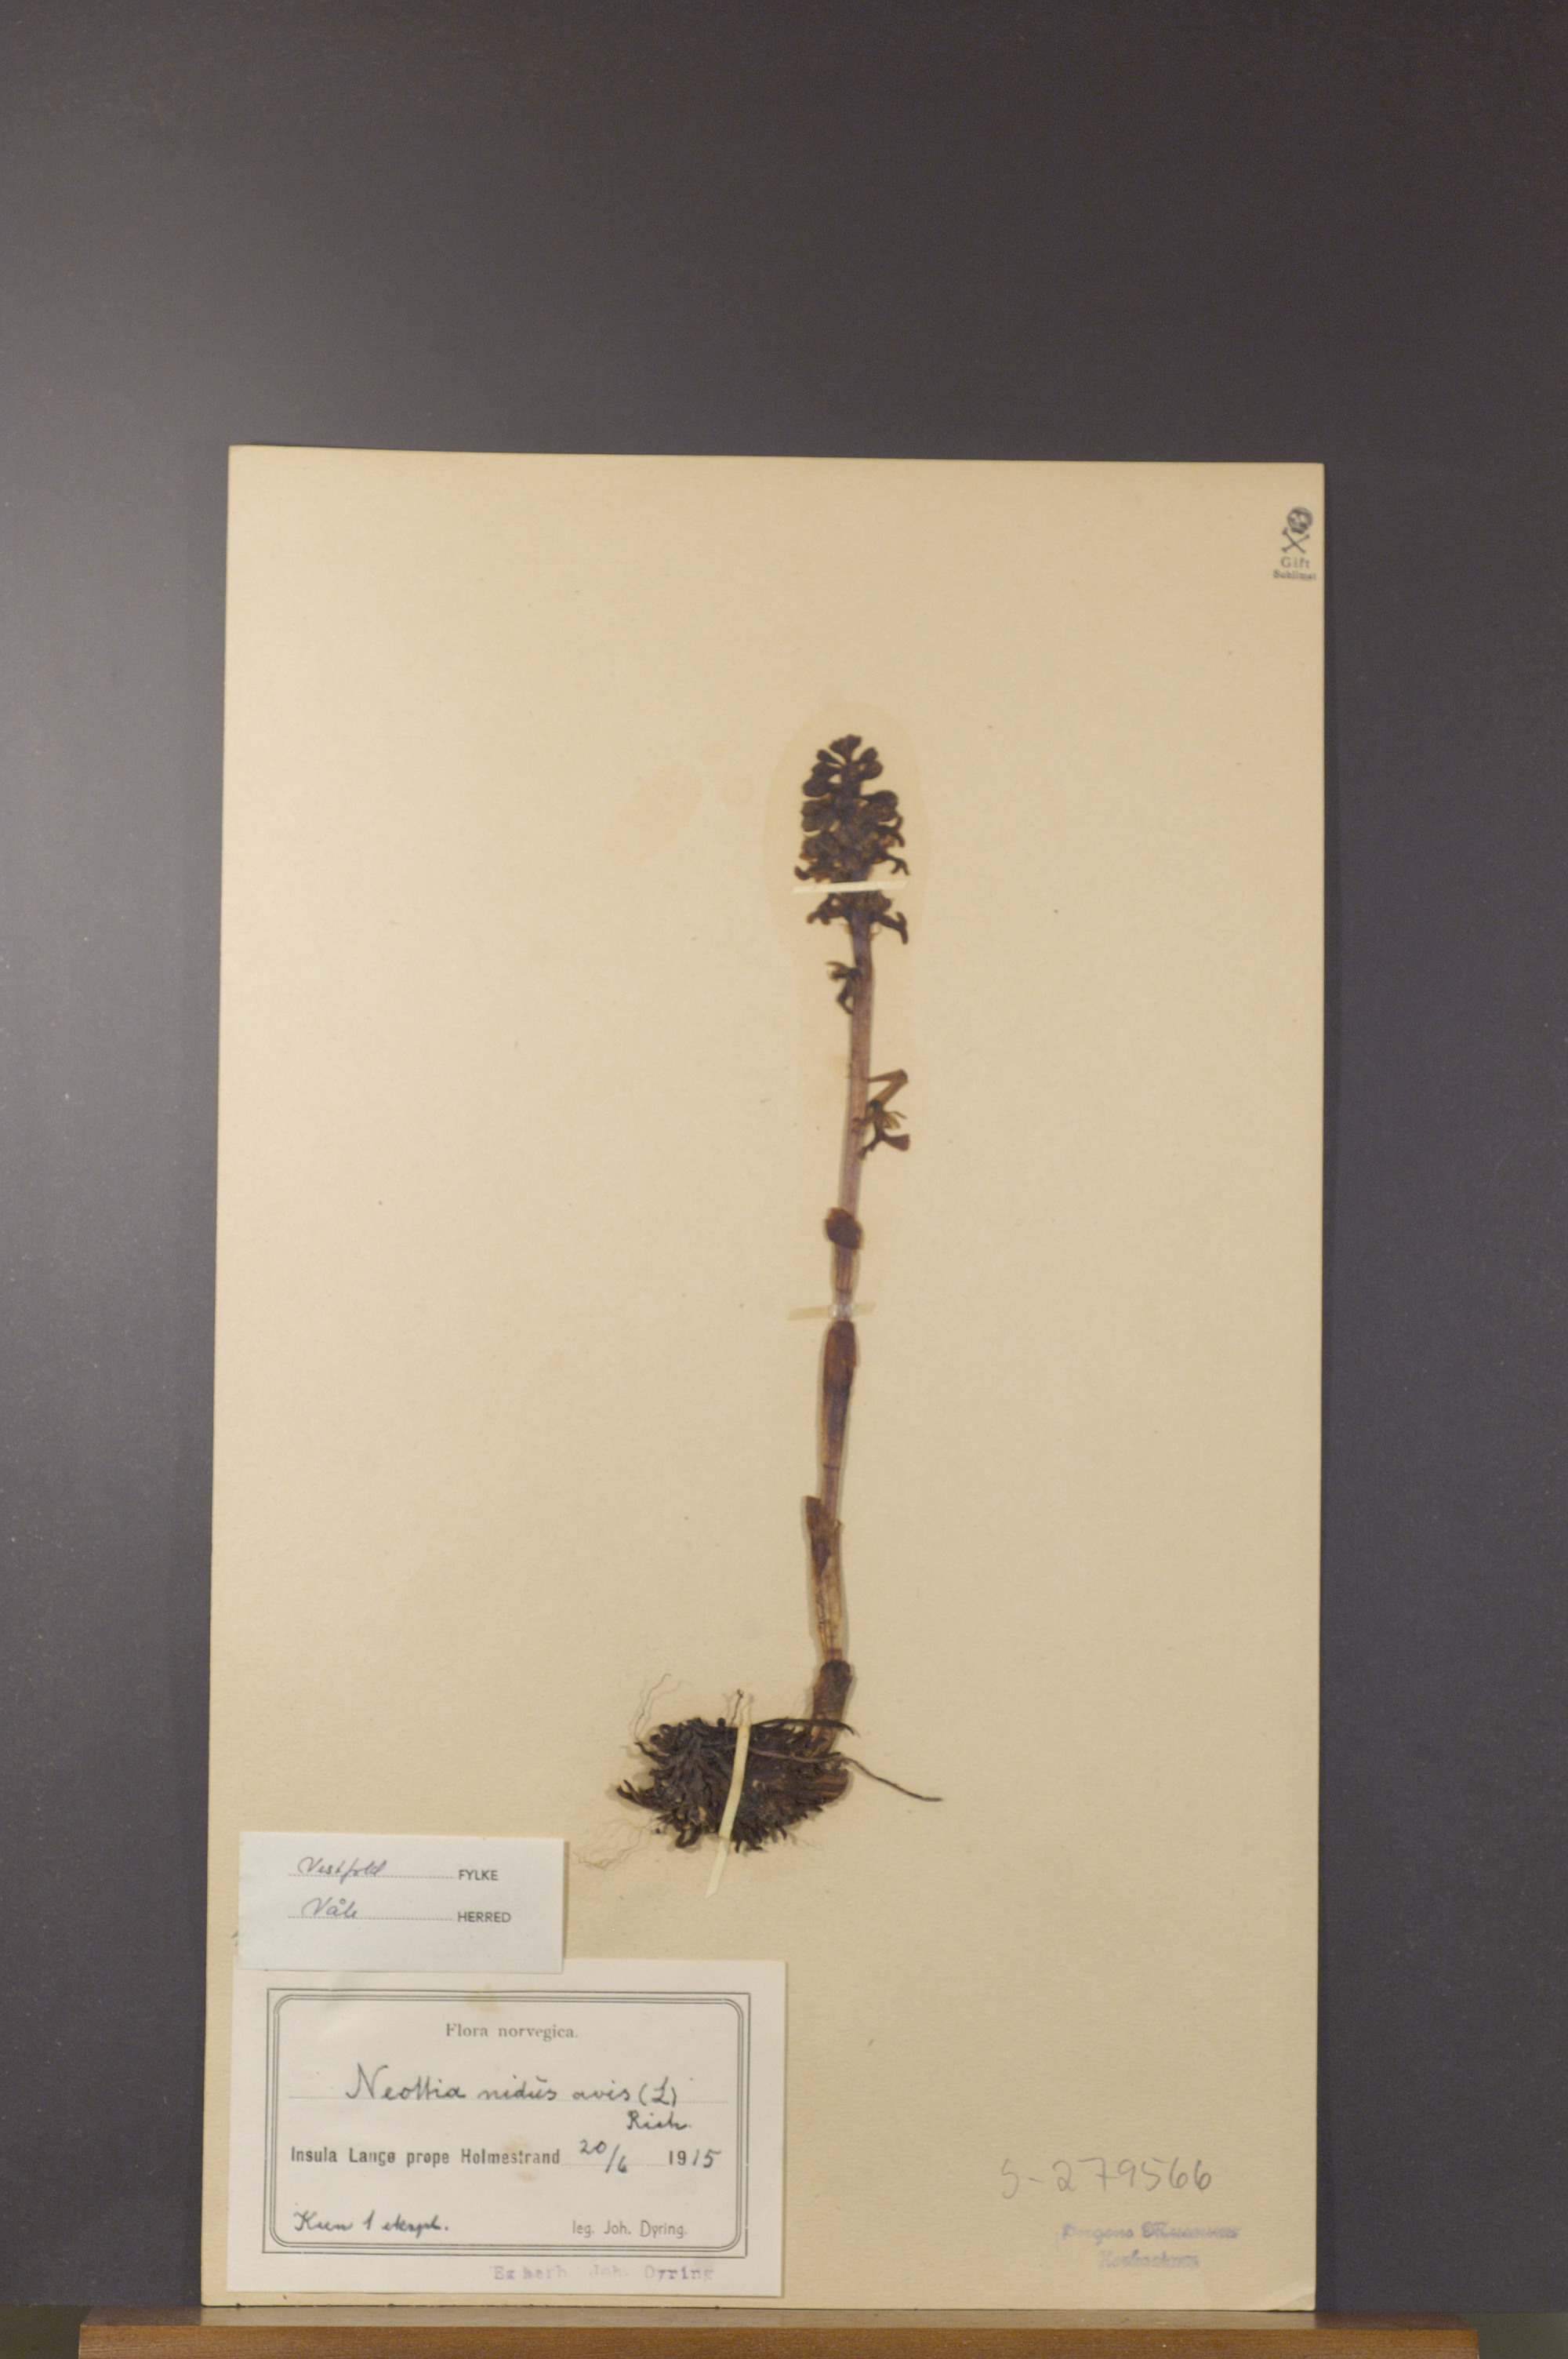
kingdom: Plantae
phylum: Tracheophyta
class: Liliopsida
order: Asparagales
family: Orchidaceae
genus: Neottia
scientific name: Neottia nidus-avis
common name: Bird's-nest orchid
